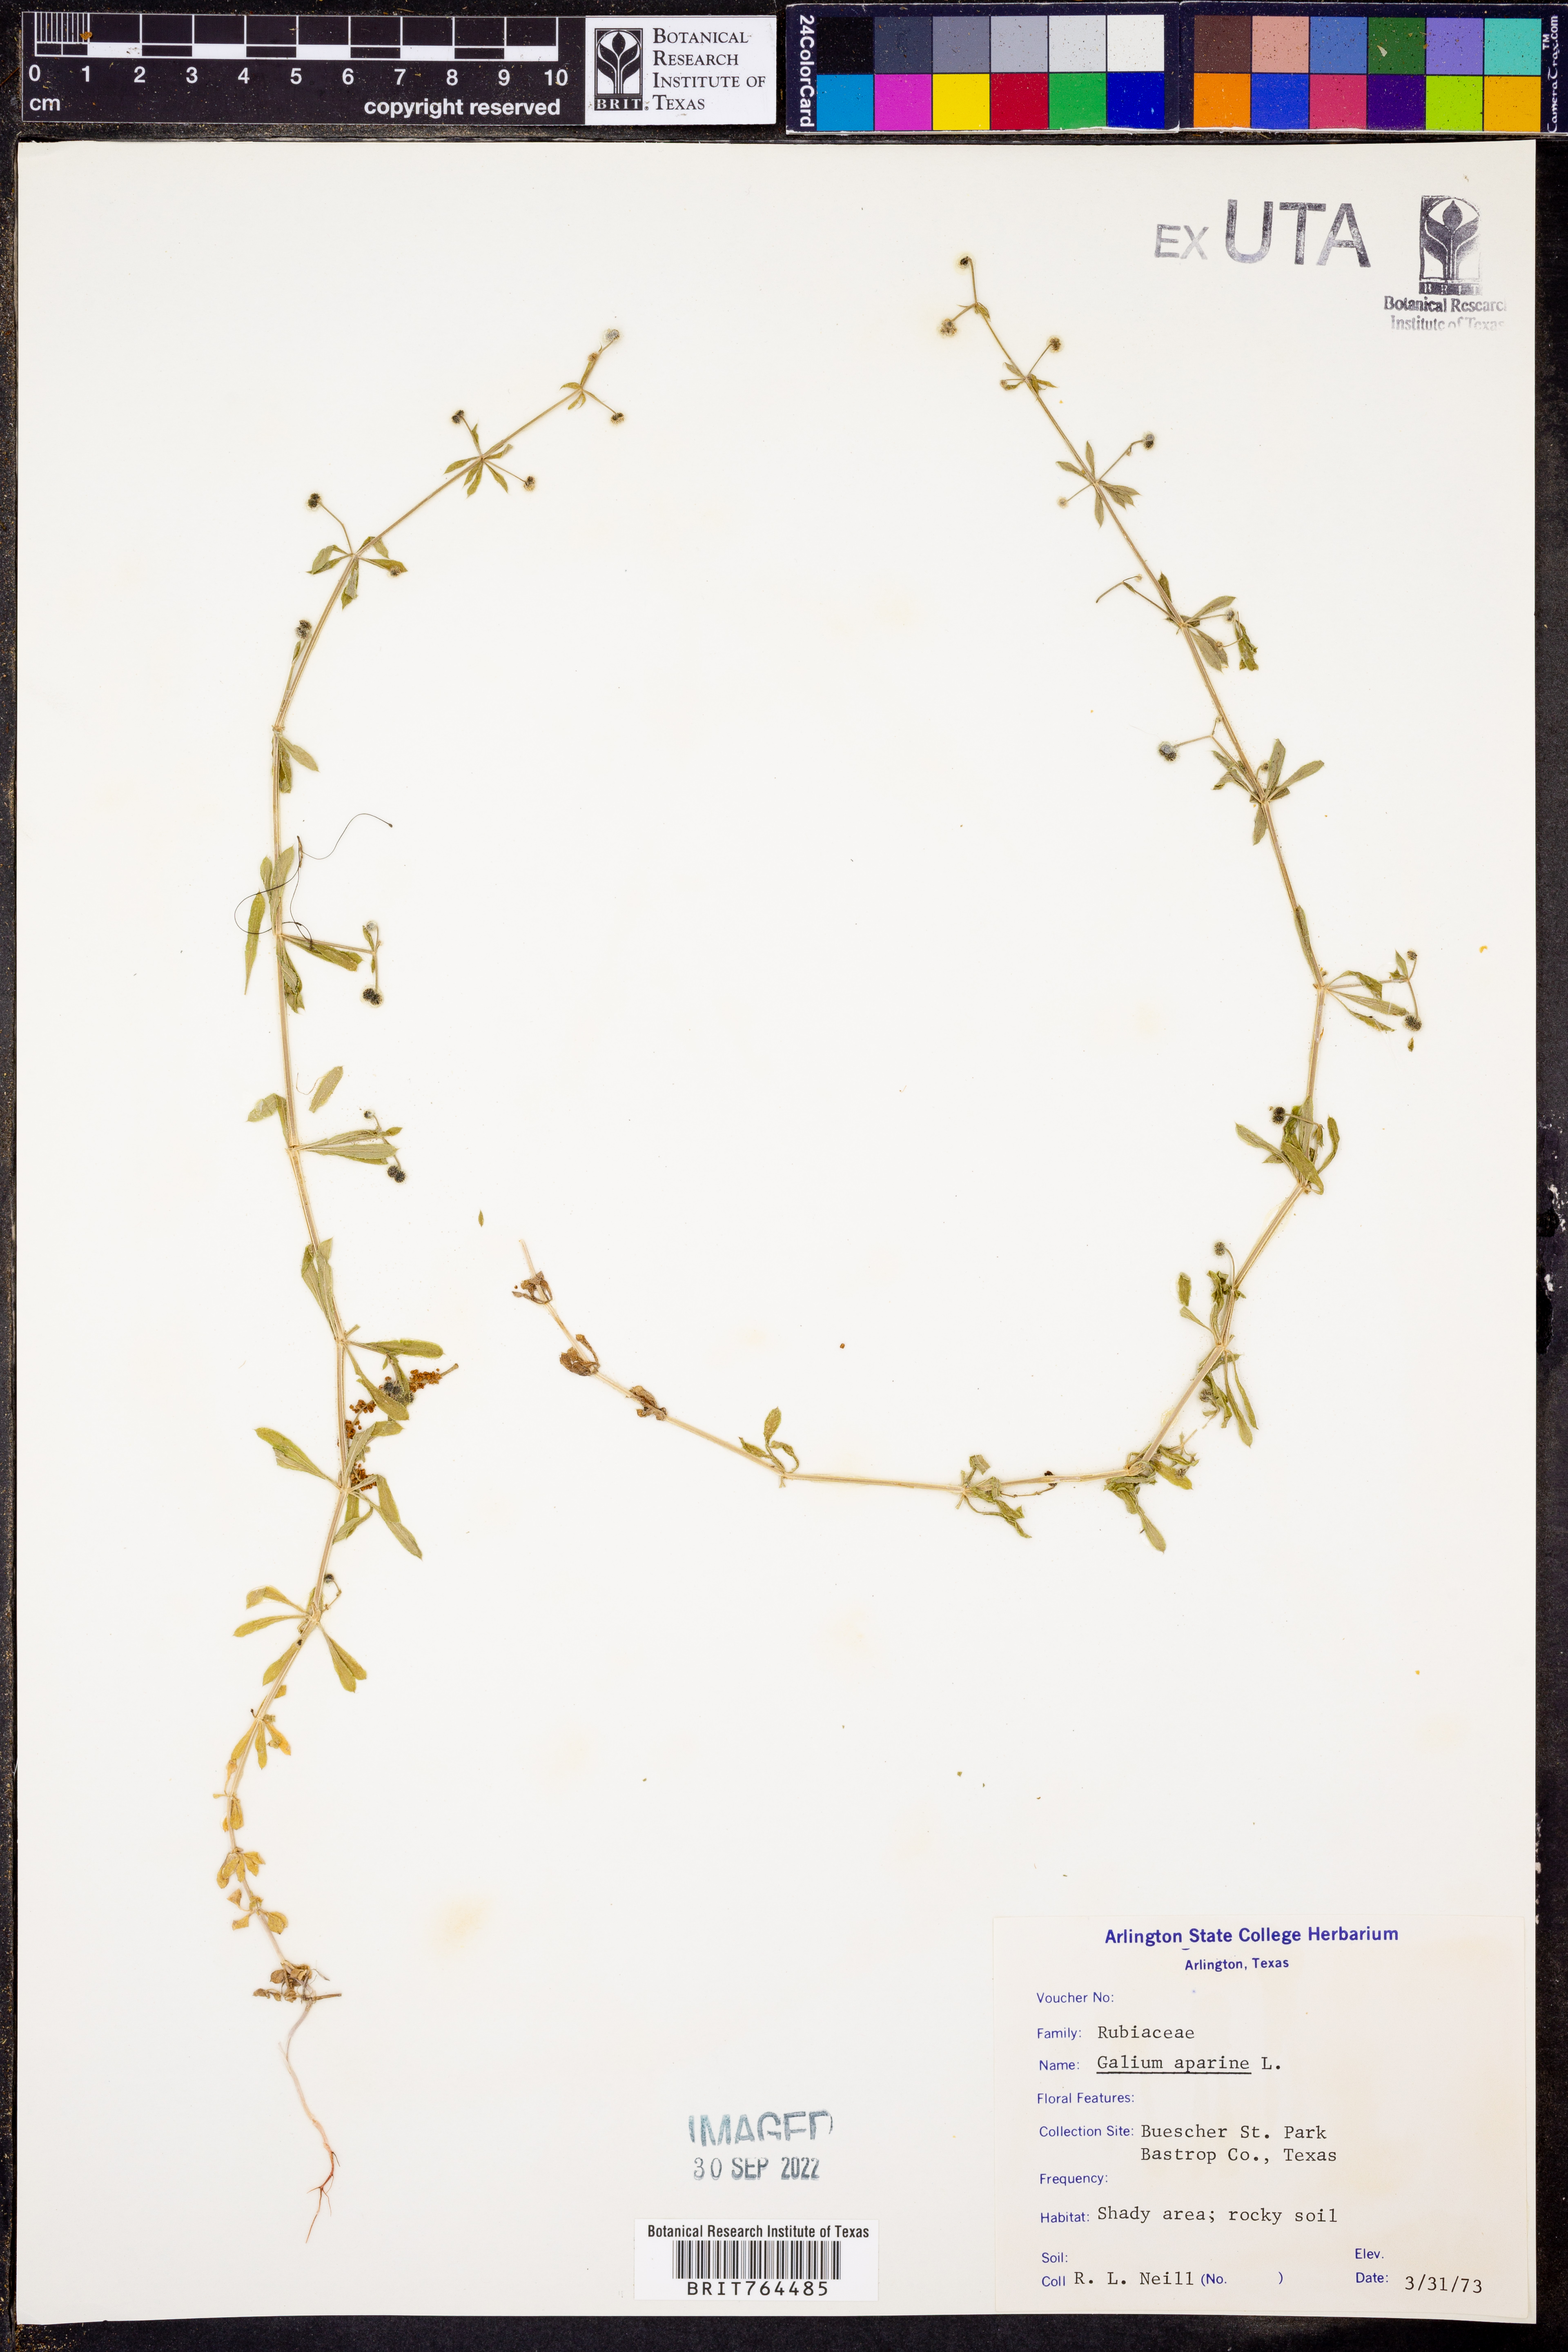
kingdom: Plantae
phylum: Tracheophyta
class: Magnoliopsida
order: Gentianales
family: Rubiaceae
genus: Galium
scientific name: Galium aparine
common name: Cleavers
